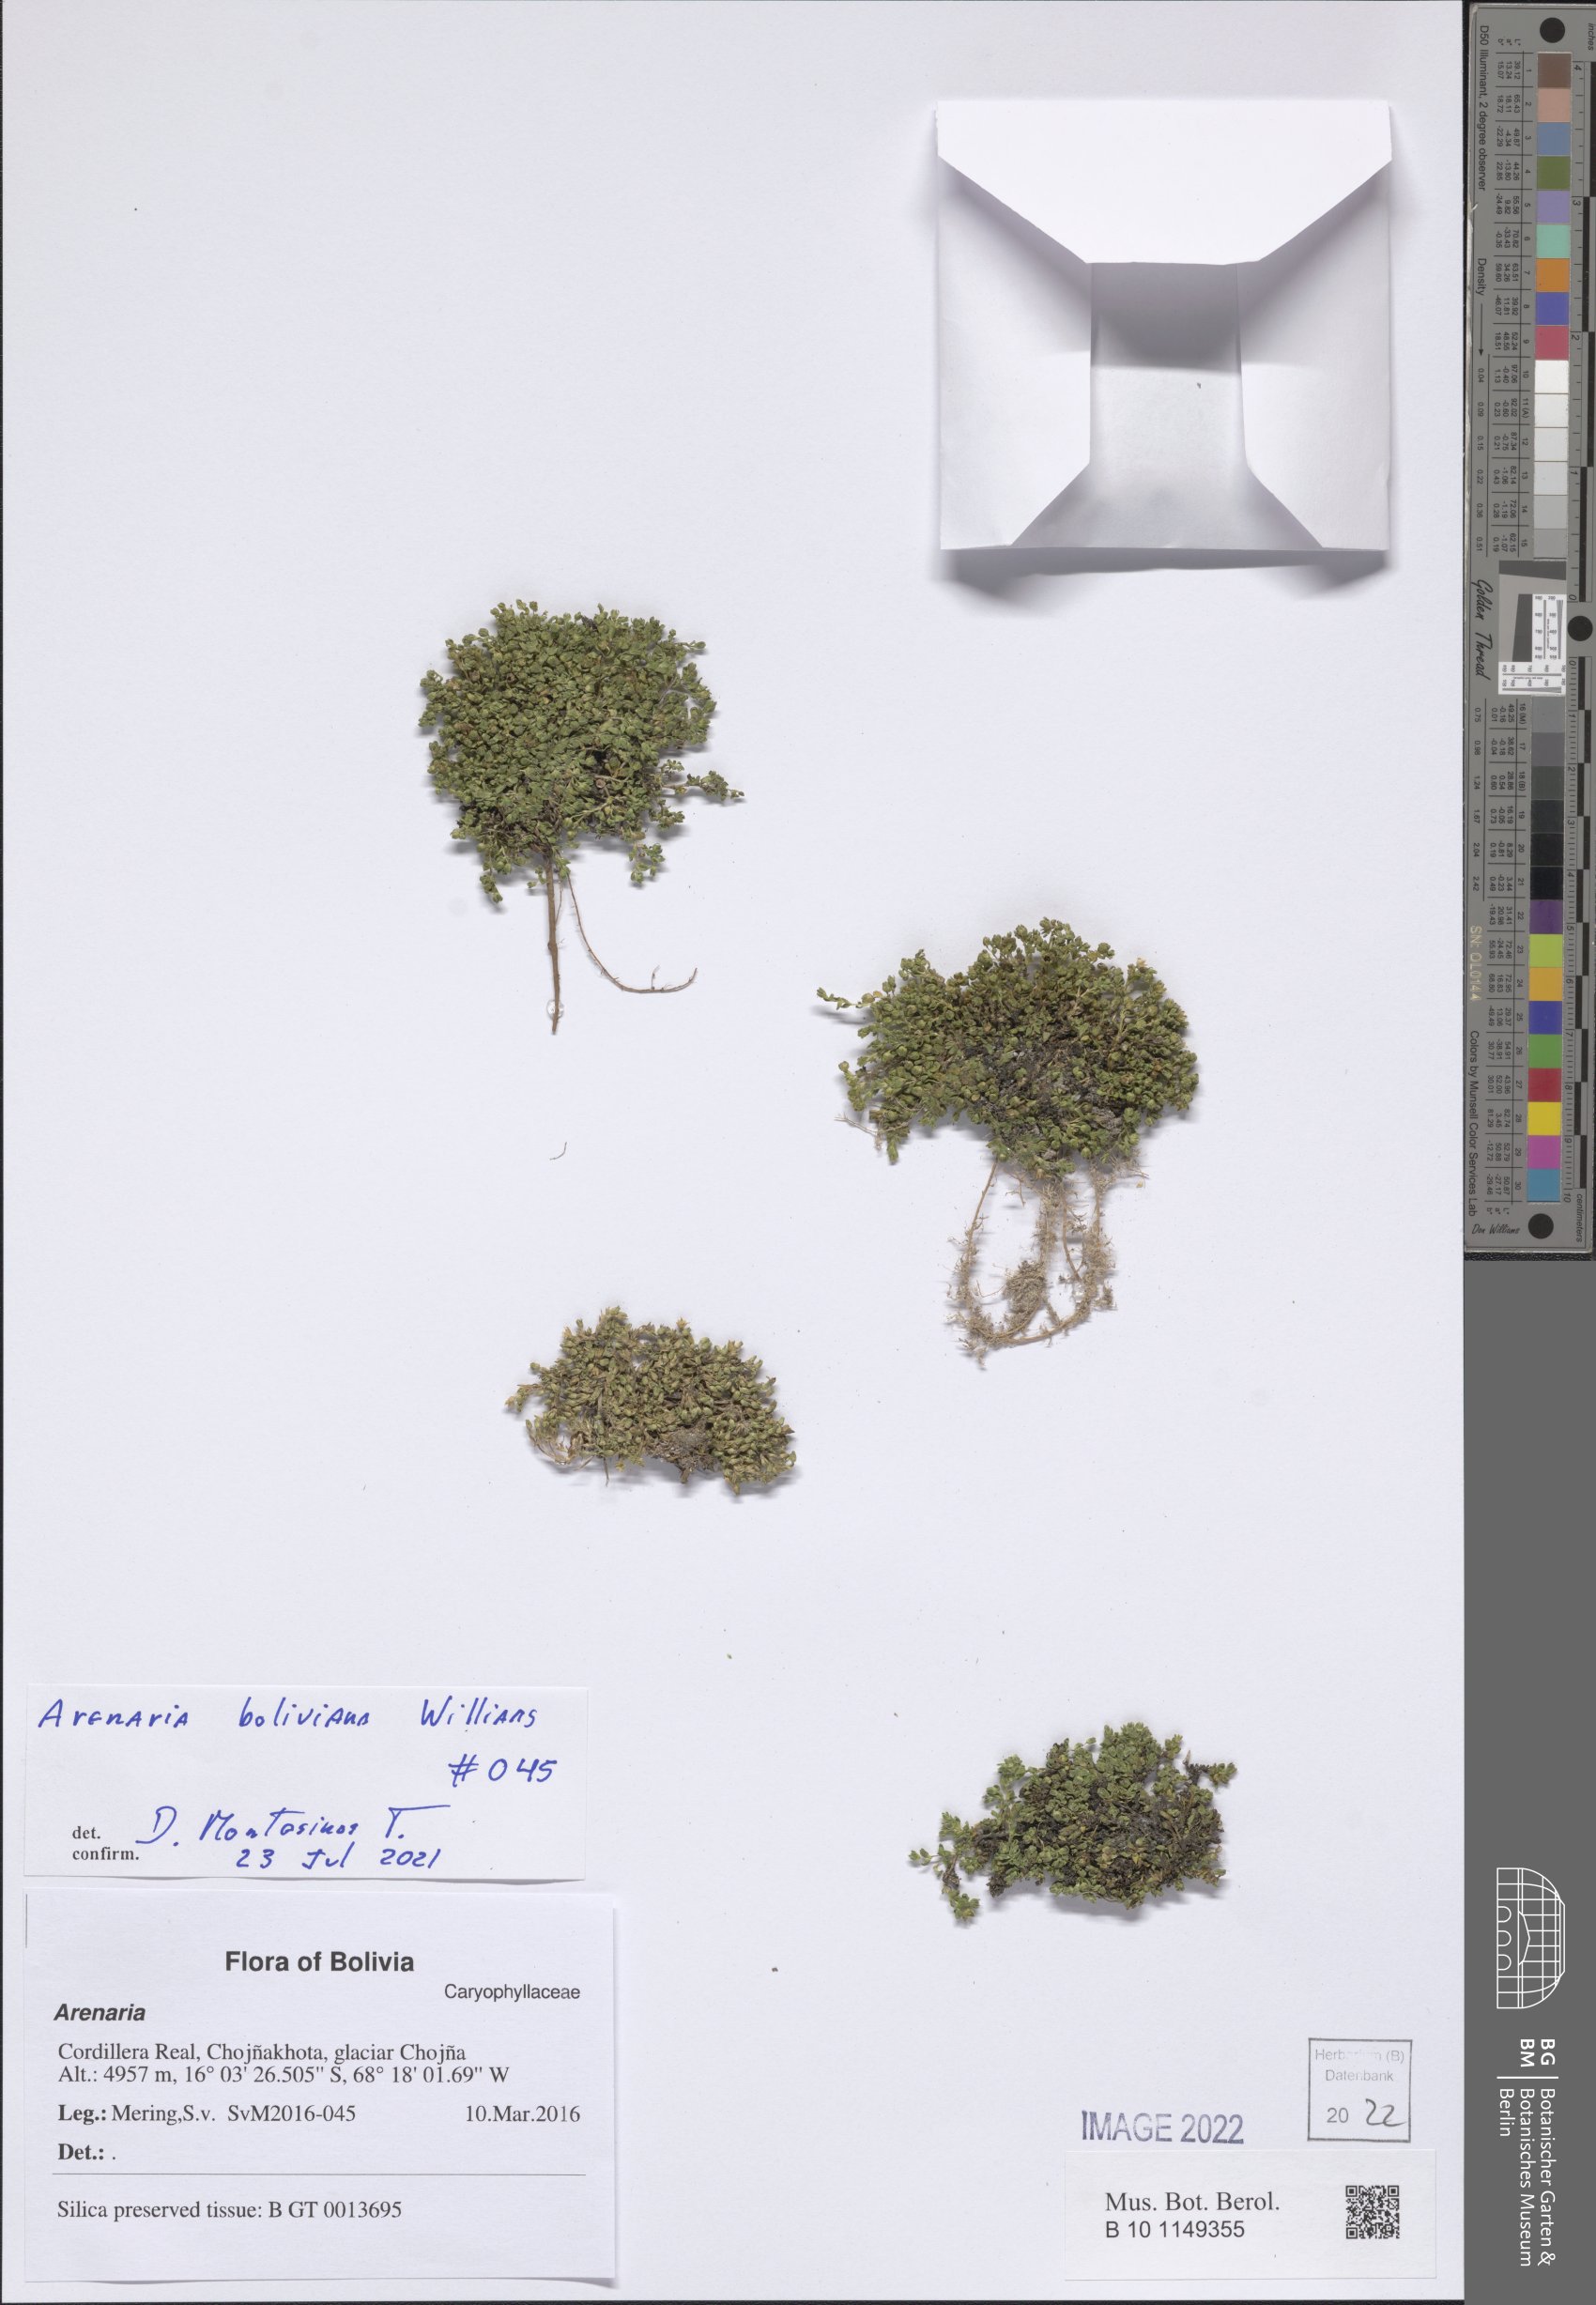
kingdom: Plantae
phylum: Tracheophyta
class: Magnoliopsida
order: Caryophyllales
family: Caryophyllaceae
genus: Arenaria
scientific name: Arenaria boliviana
